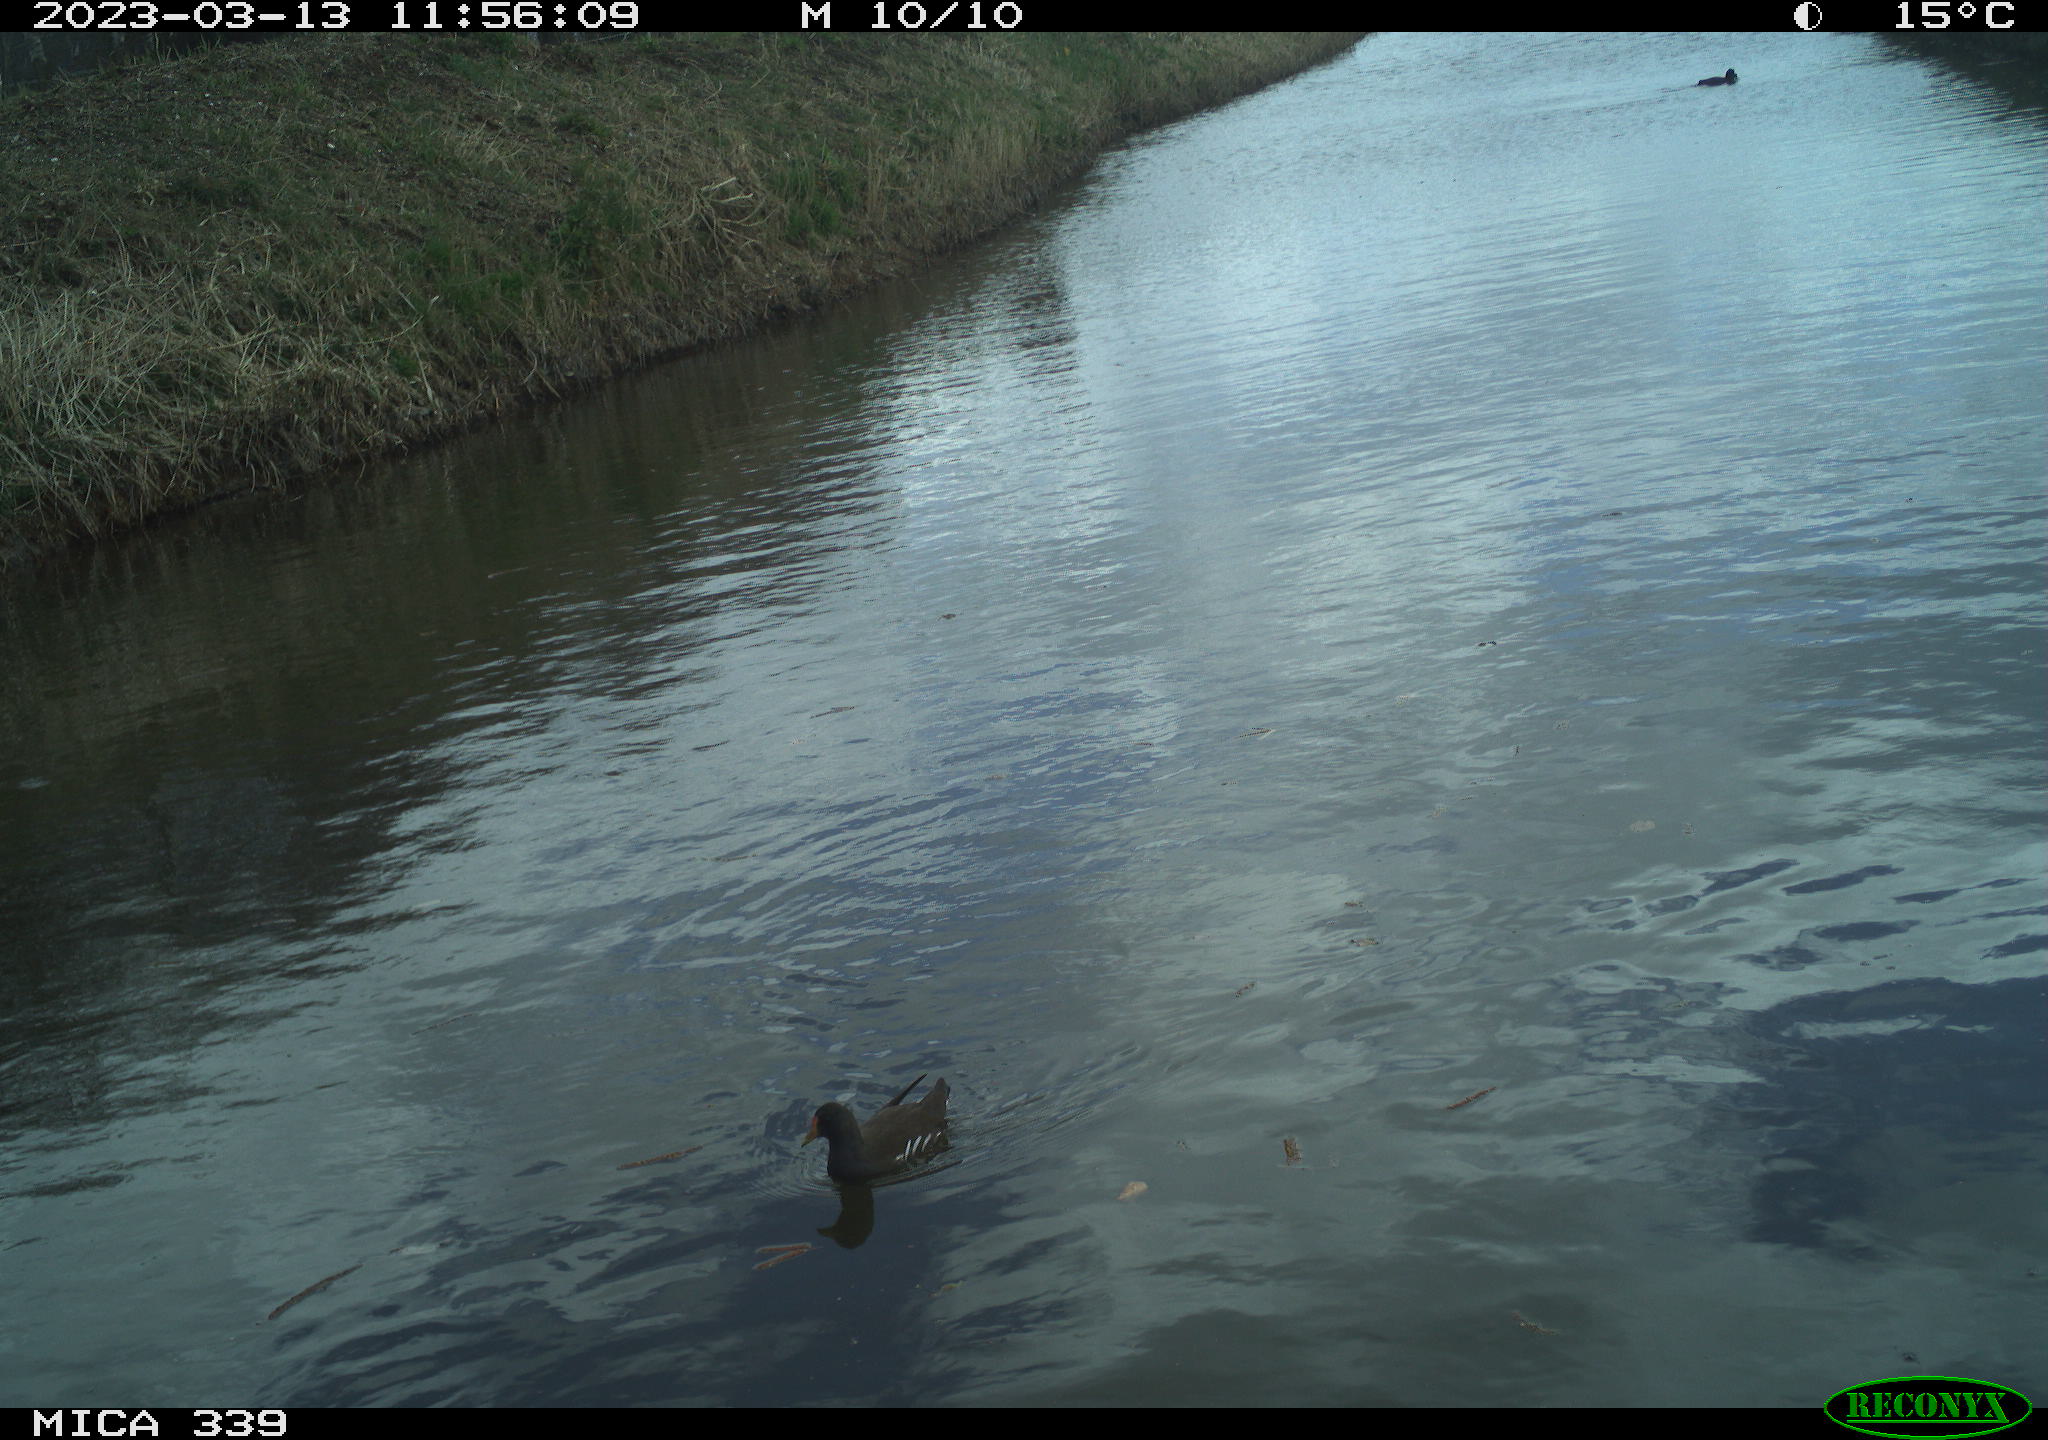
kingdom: Animalia
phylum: Chordata
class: Aves
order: Gruiformes
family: Rallidae
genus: Gallinula
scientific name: Gallinula chloropus
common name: Common moorhen
